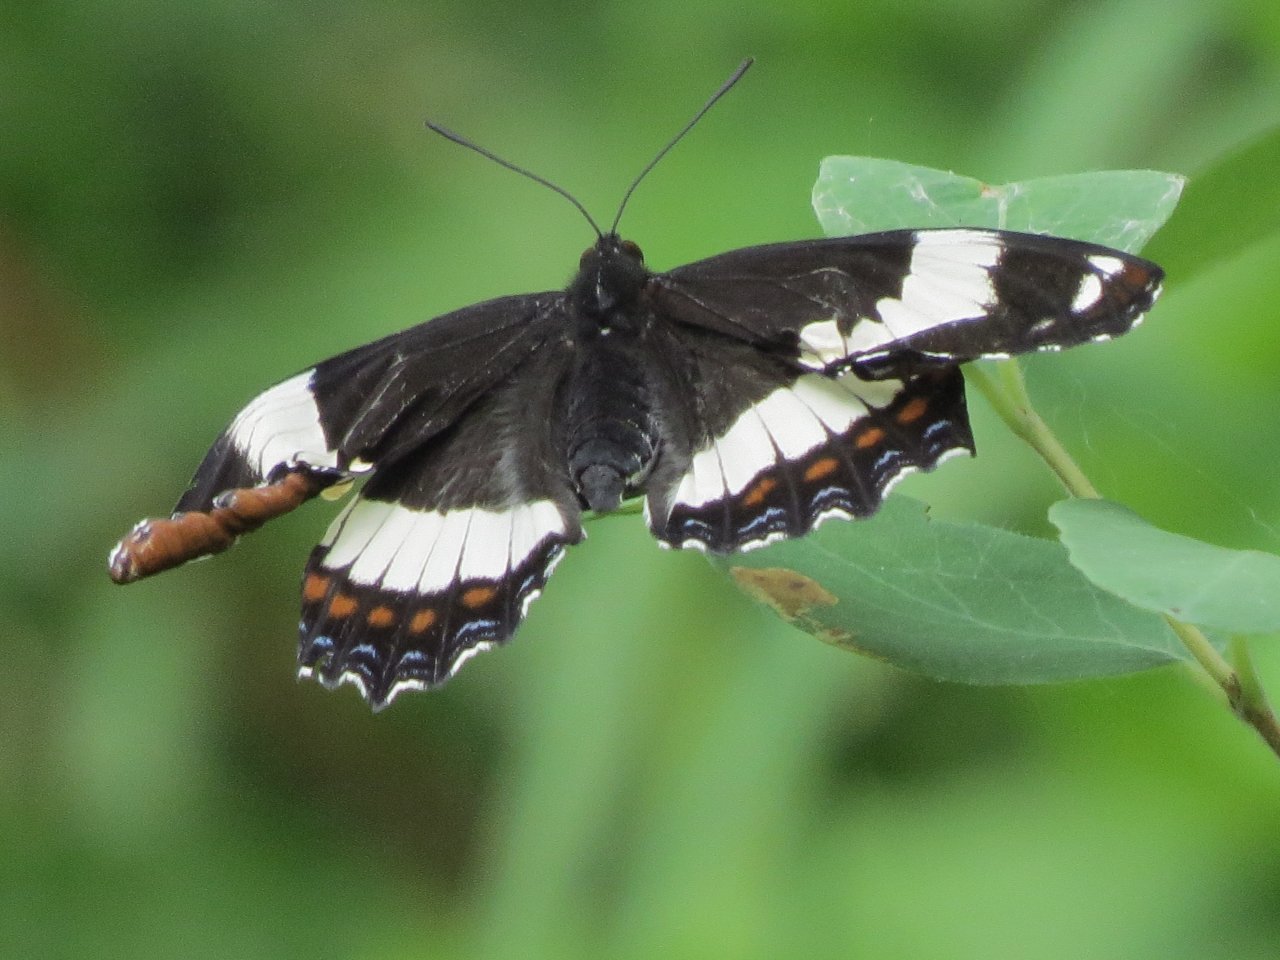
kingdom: Animalia
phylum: Arthropoda
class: Insecta
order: Lepidoptera
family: Nymphalidae
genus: Limenitis
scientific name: Limenitis arthemis
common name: Red-spotted Admiral
